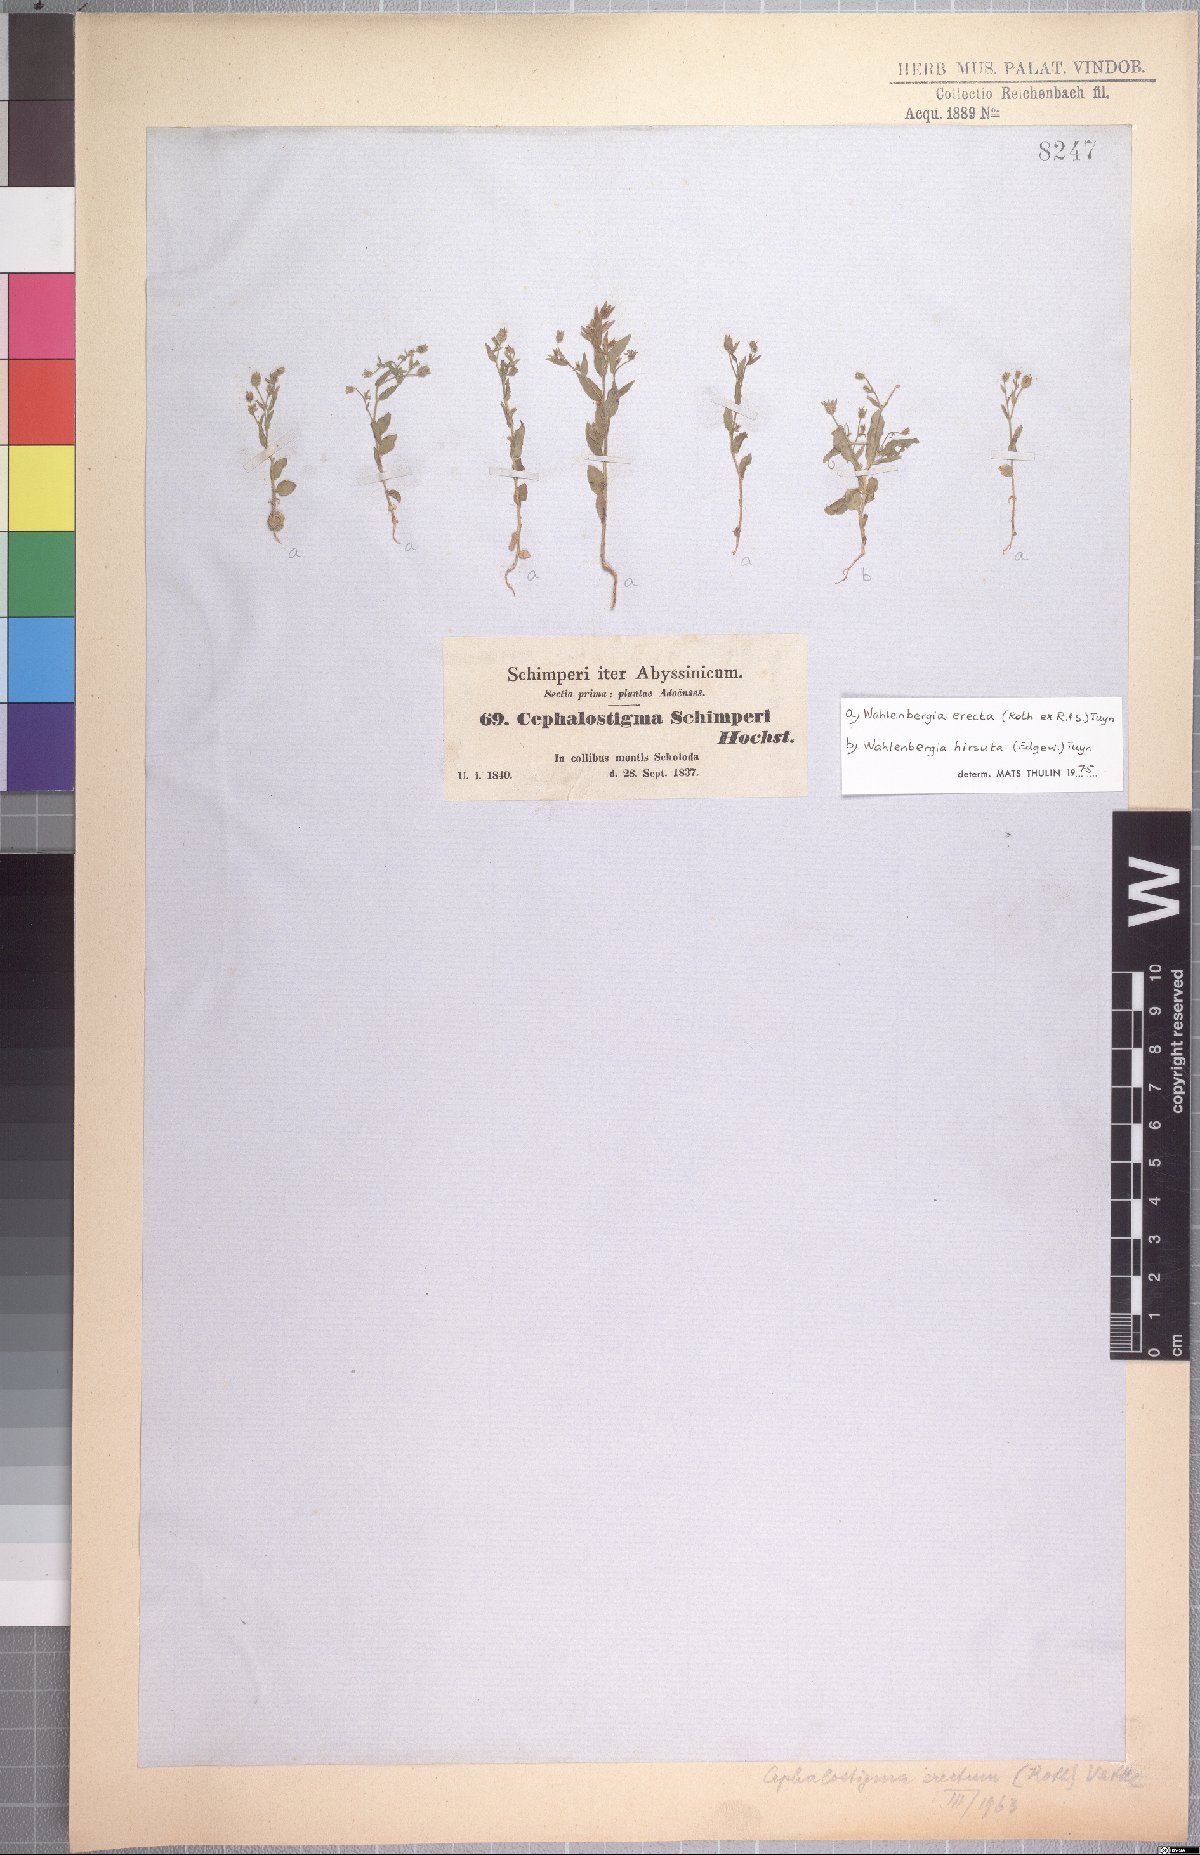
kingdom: Plantae
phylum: Tracheophyta
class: Magnoliopsida
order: Asterales
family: Campanulaceae
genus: Wahlenbergia
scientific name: Wahlenbergia erecta
